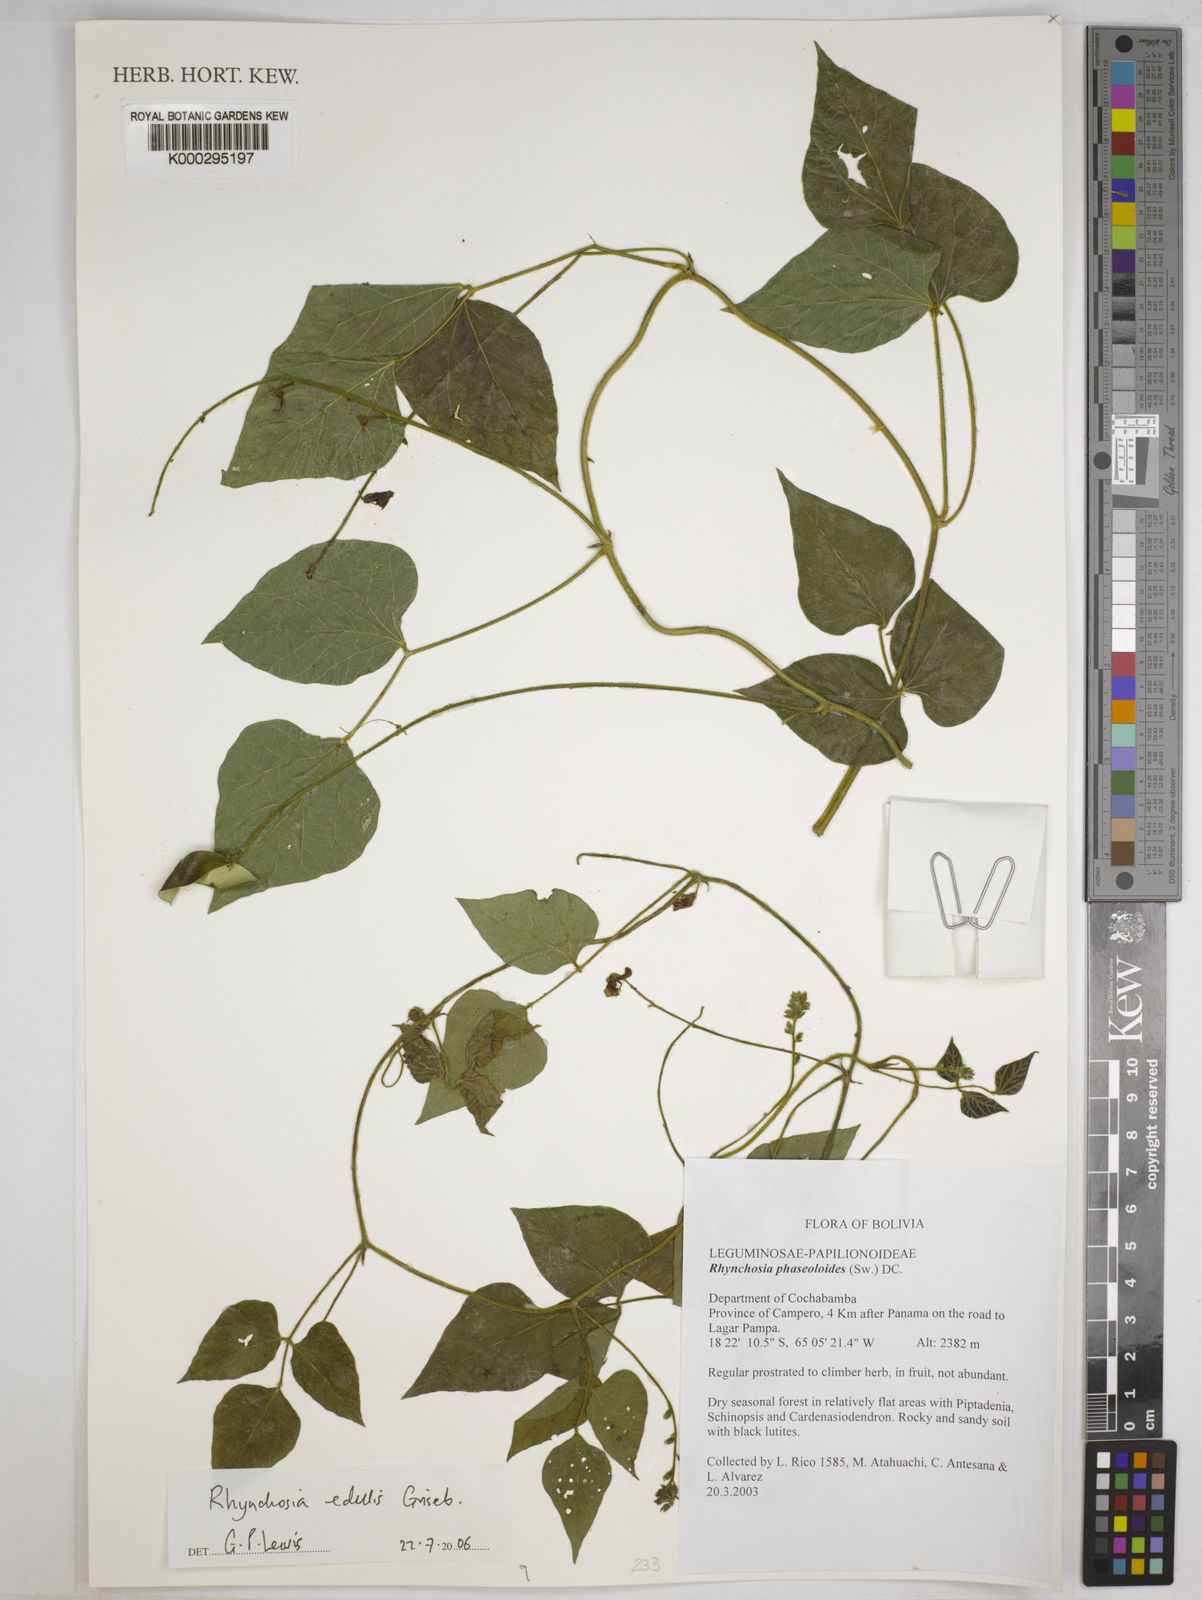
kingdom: Plantae
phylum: Tracheophyta
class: Magnoliopsida
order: Fabales
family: Fabaceae
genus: Rhynchosia
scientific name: Rhynchosia edulis
